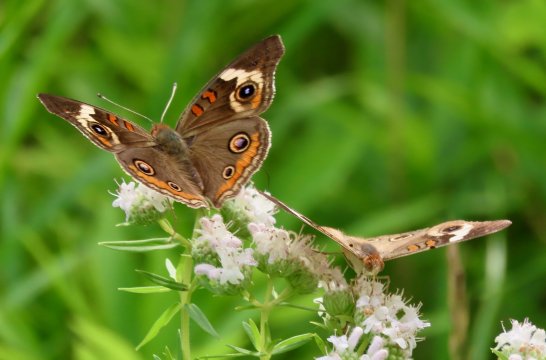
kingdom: Animalia
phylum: Arthropoda
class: Insecta
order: Lepidoptera
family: Nymphalidae
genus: Junonia
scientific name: Junonia coenia
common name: Common Buckeye
